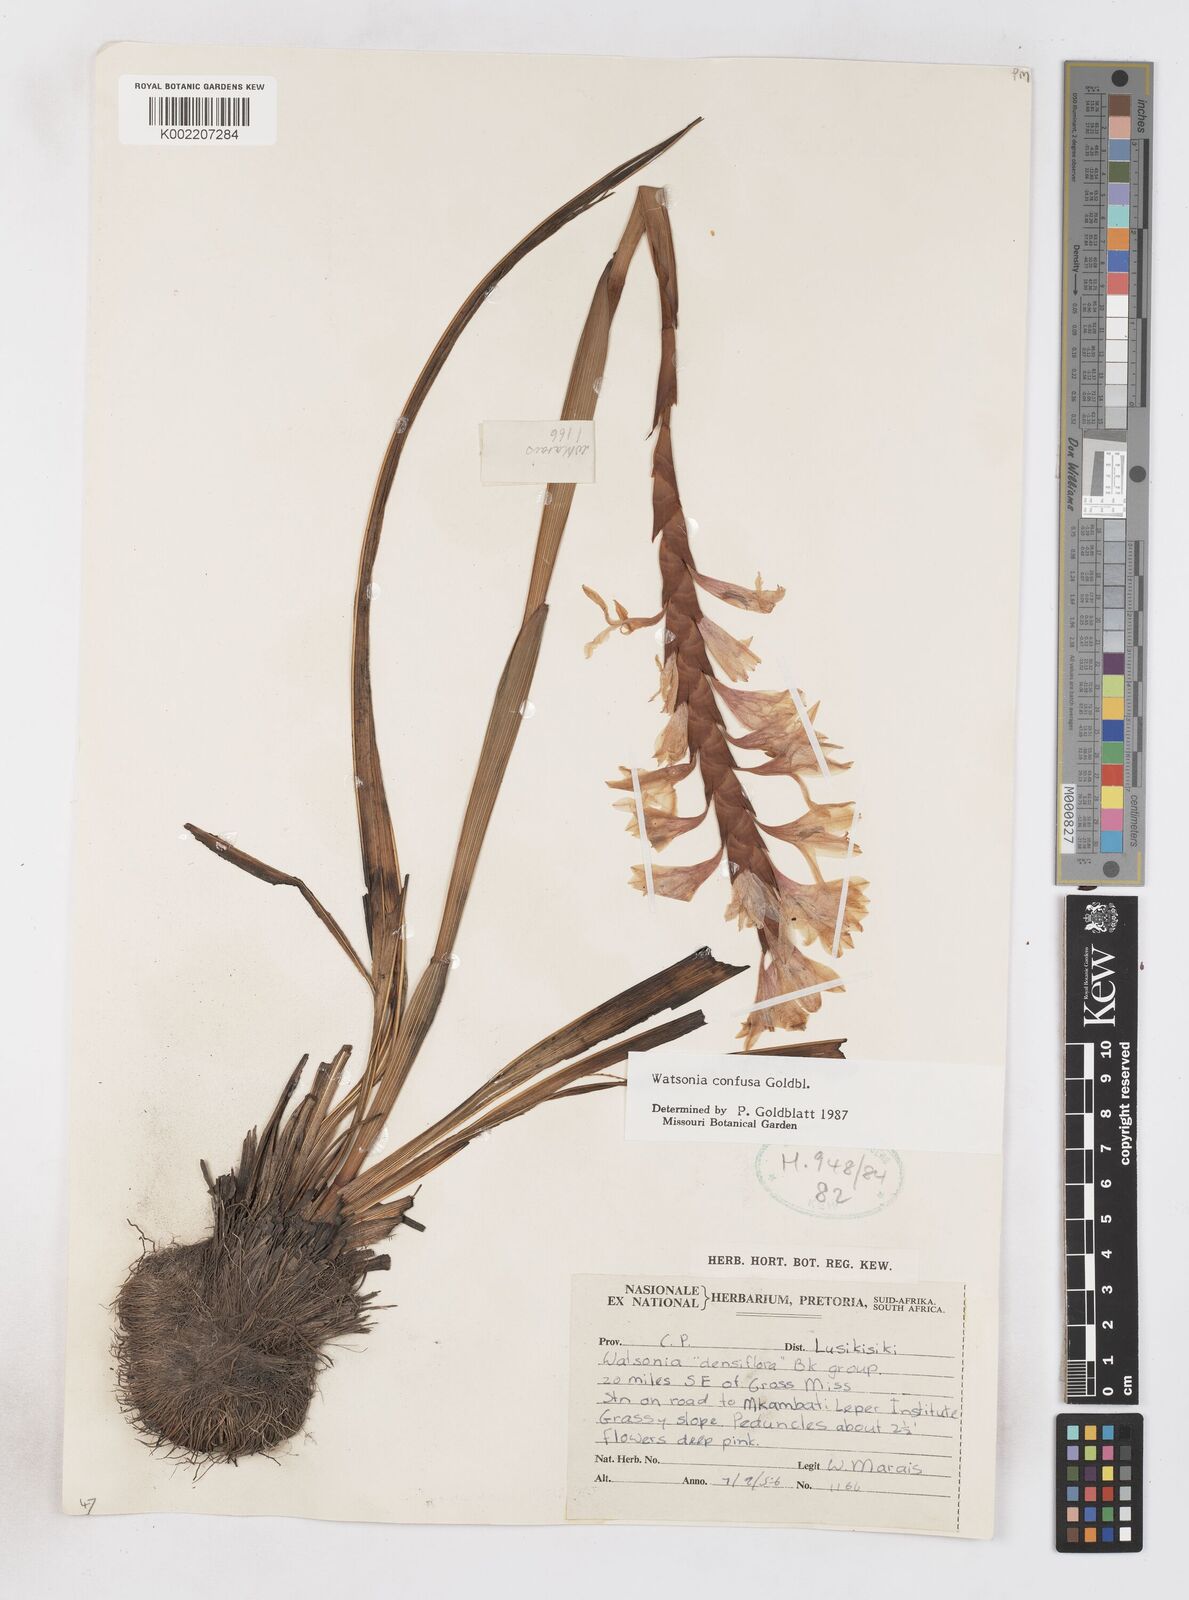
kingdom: Plantae
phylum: Tracheophyta
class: Liliopsida
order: Asparagales
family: Iridaceae
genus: Watsonia
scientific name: Watsonia confusa
